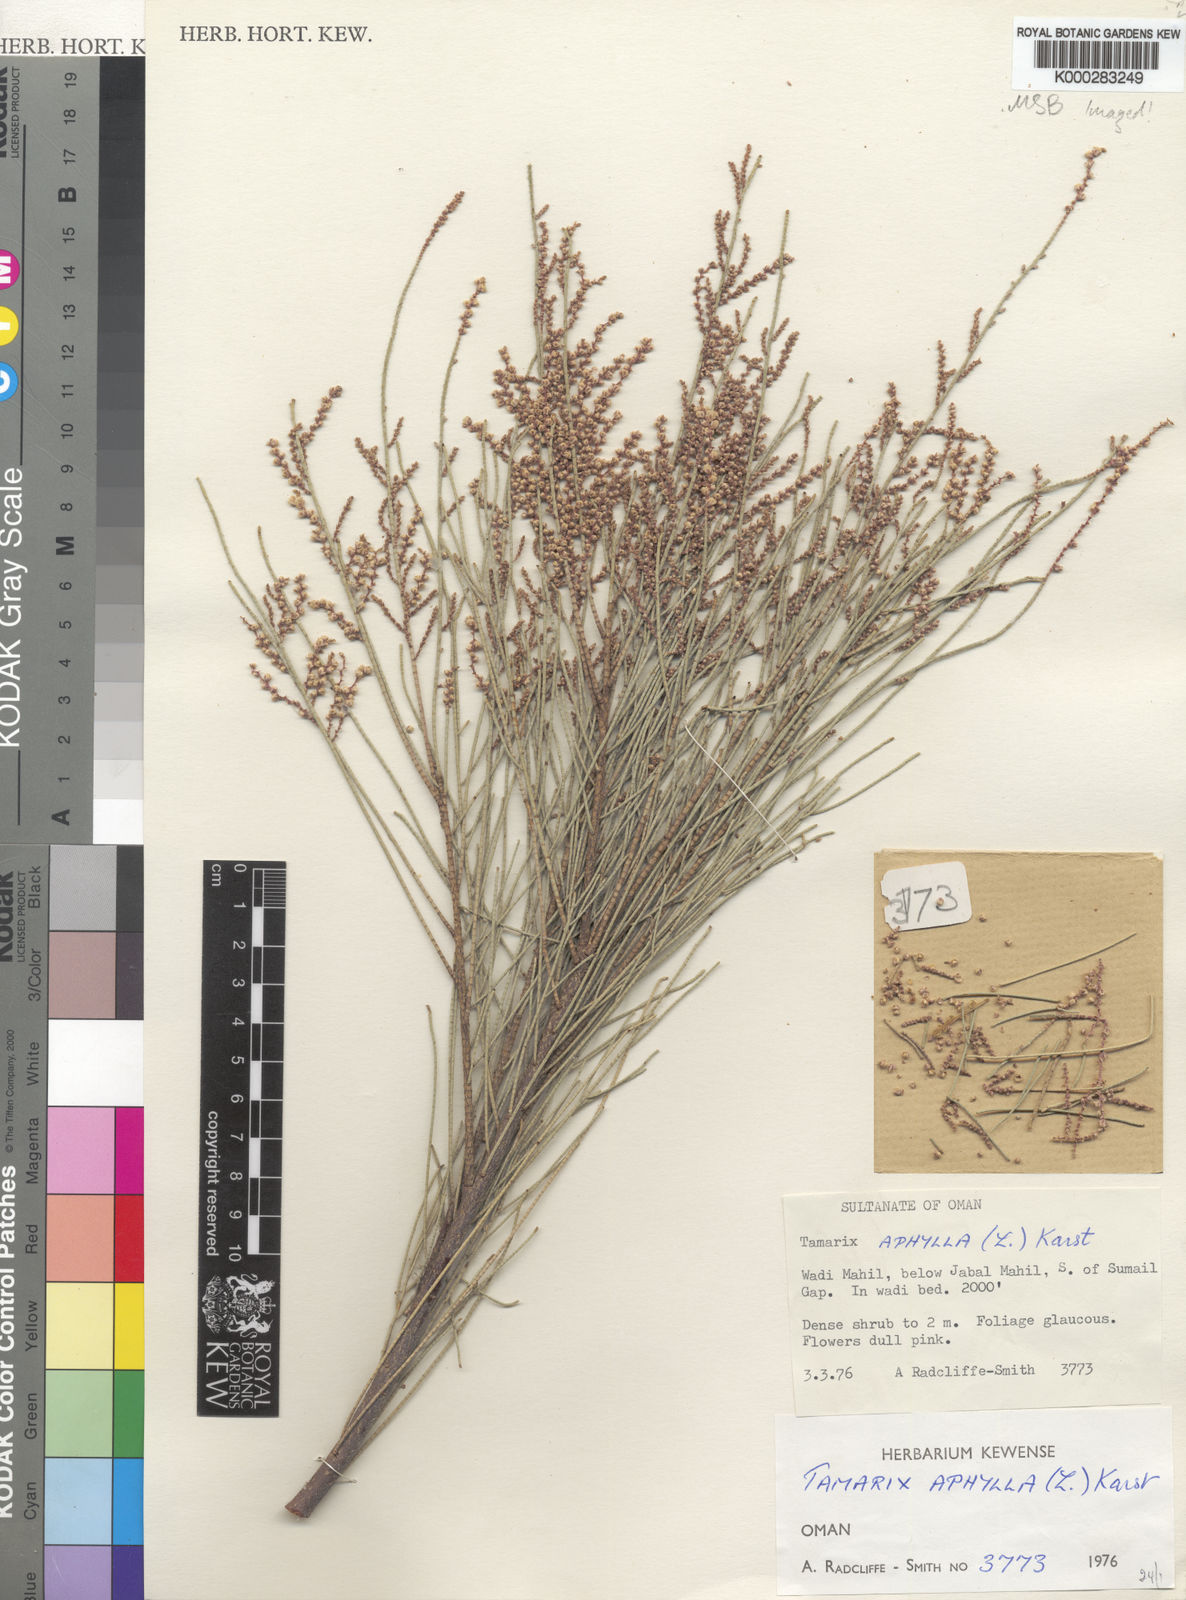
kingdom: Plantae
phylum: Tracheophyta
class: Magnoliopsida
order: Caryophyllales
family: Tamaricaceae
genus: Tamarix
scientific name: Tamarix aphylla
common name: Athel tamarisk
